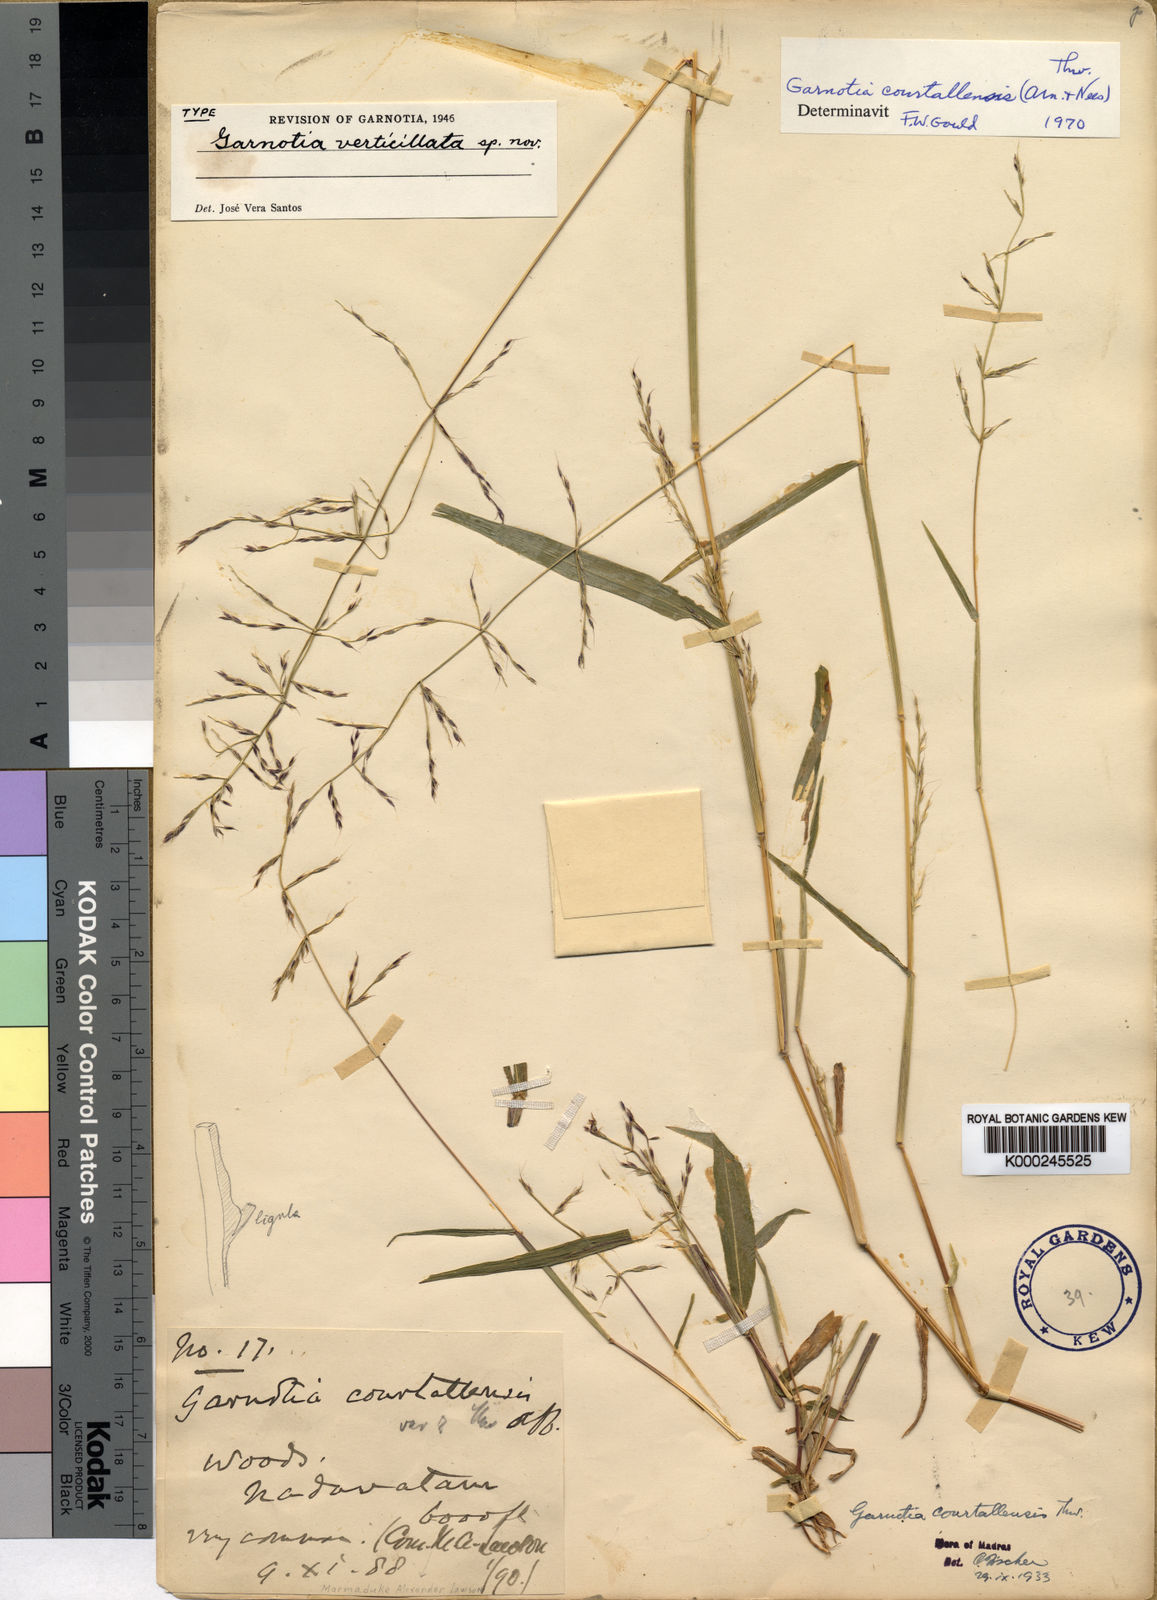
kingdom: Plantae
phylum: Tracheophyta
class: Liliopsida
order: Poales
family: Poaceae
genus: Garnotia
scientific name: Garnotia courtallensis
